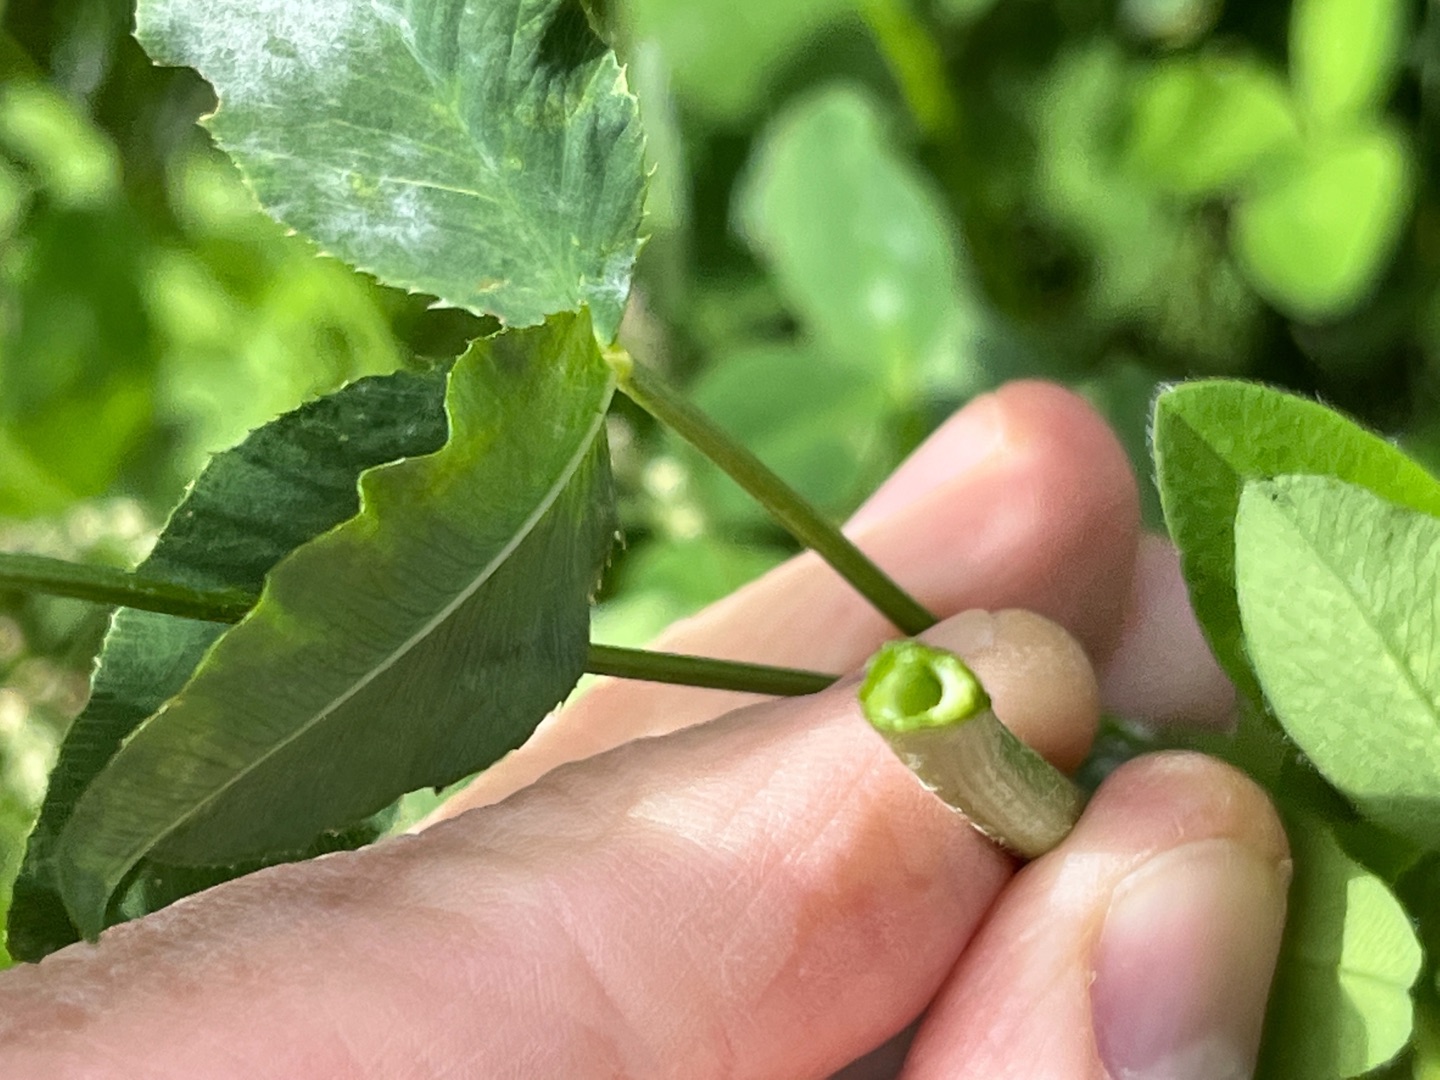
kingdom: Plantae
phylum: Tracheophyta
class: Magnoliopsida
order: Fabales
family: Fabaceae
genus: Trifolium
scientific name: Trifolium hybridum
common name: Alsike-kløver
